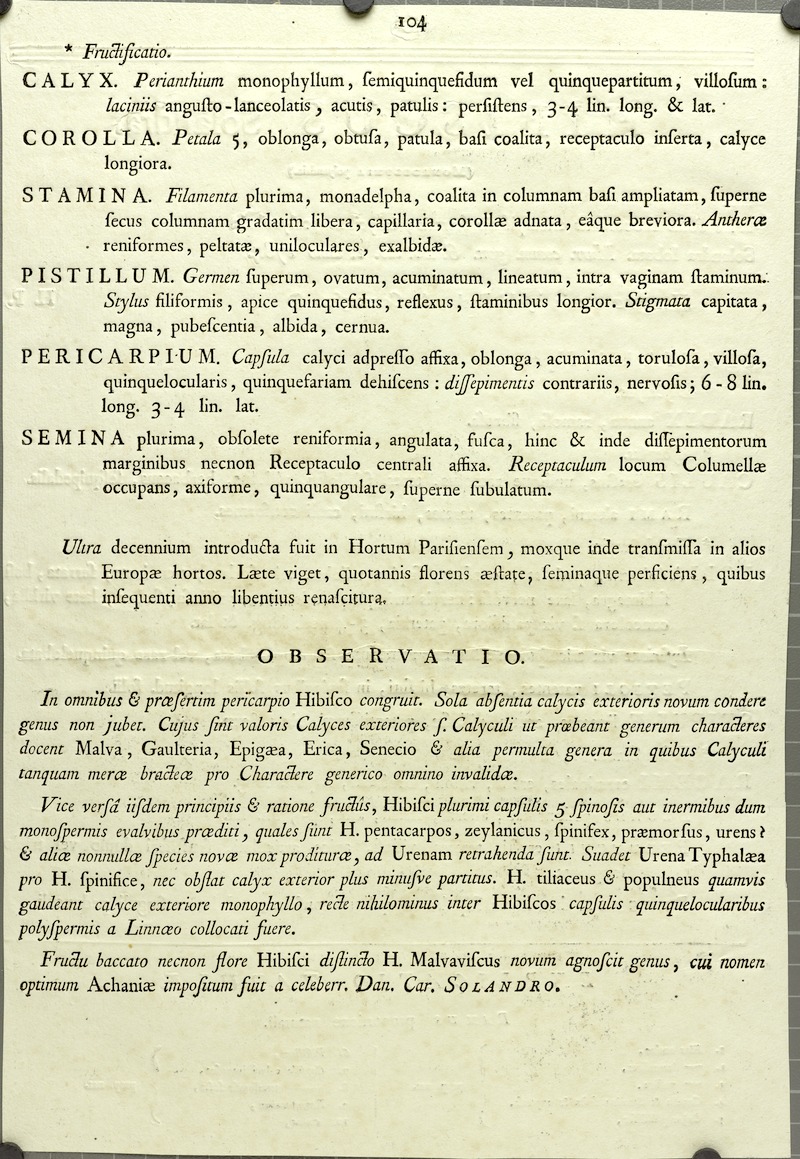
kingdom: Plantae
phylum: Tracheophyta
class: Magnoliopsida
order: Malvales
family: Malvaceae
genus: Hibiscus
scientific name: Hibiscus lobatus
